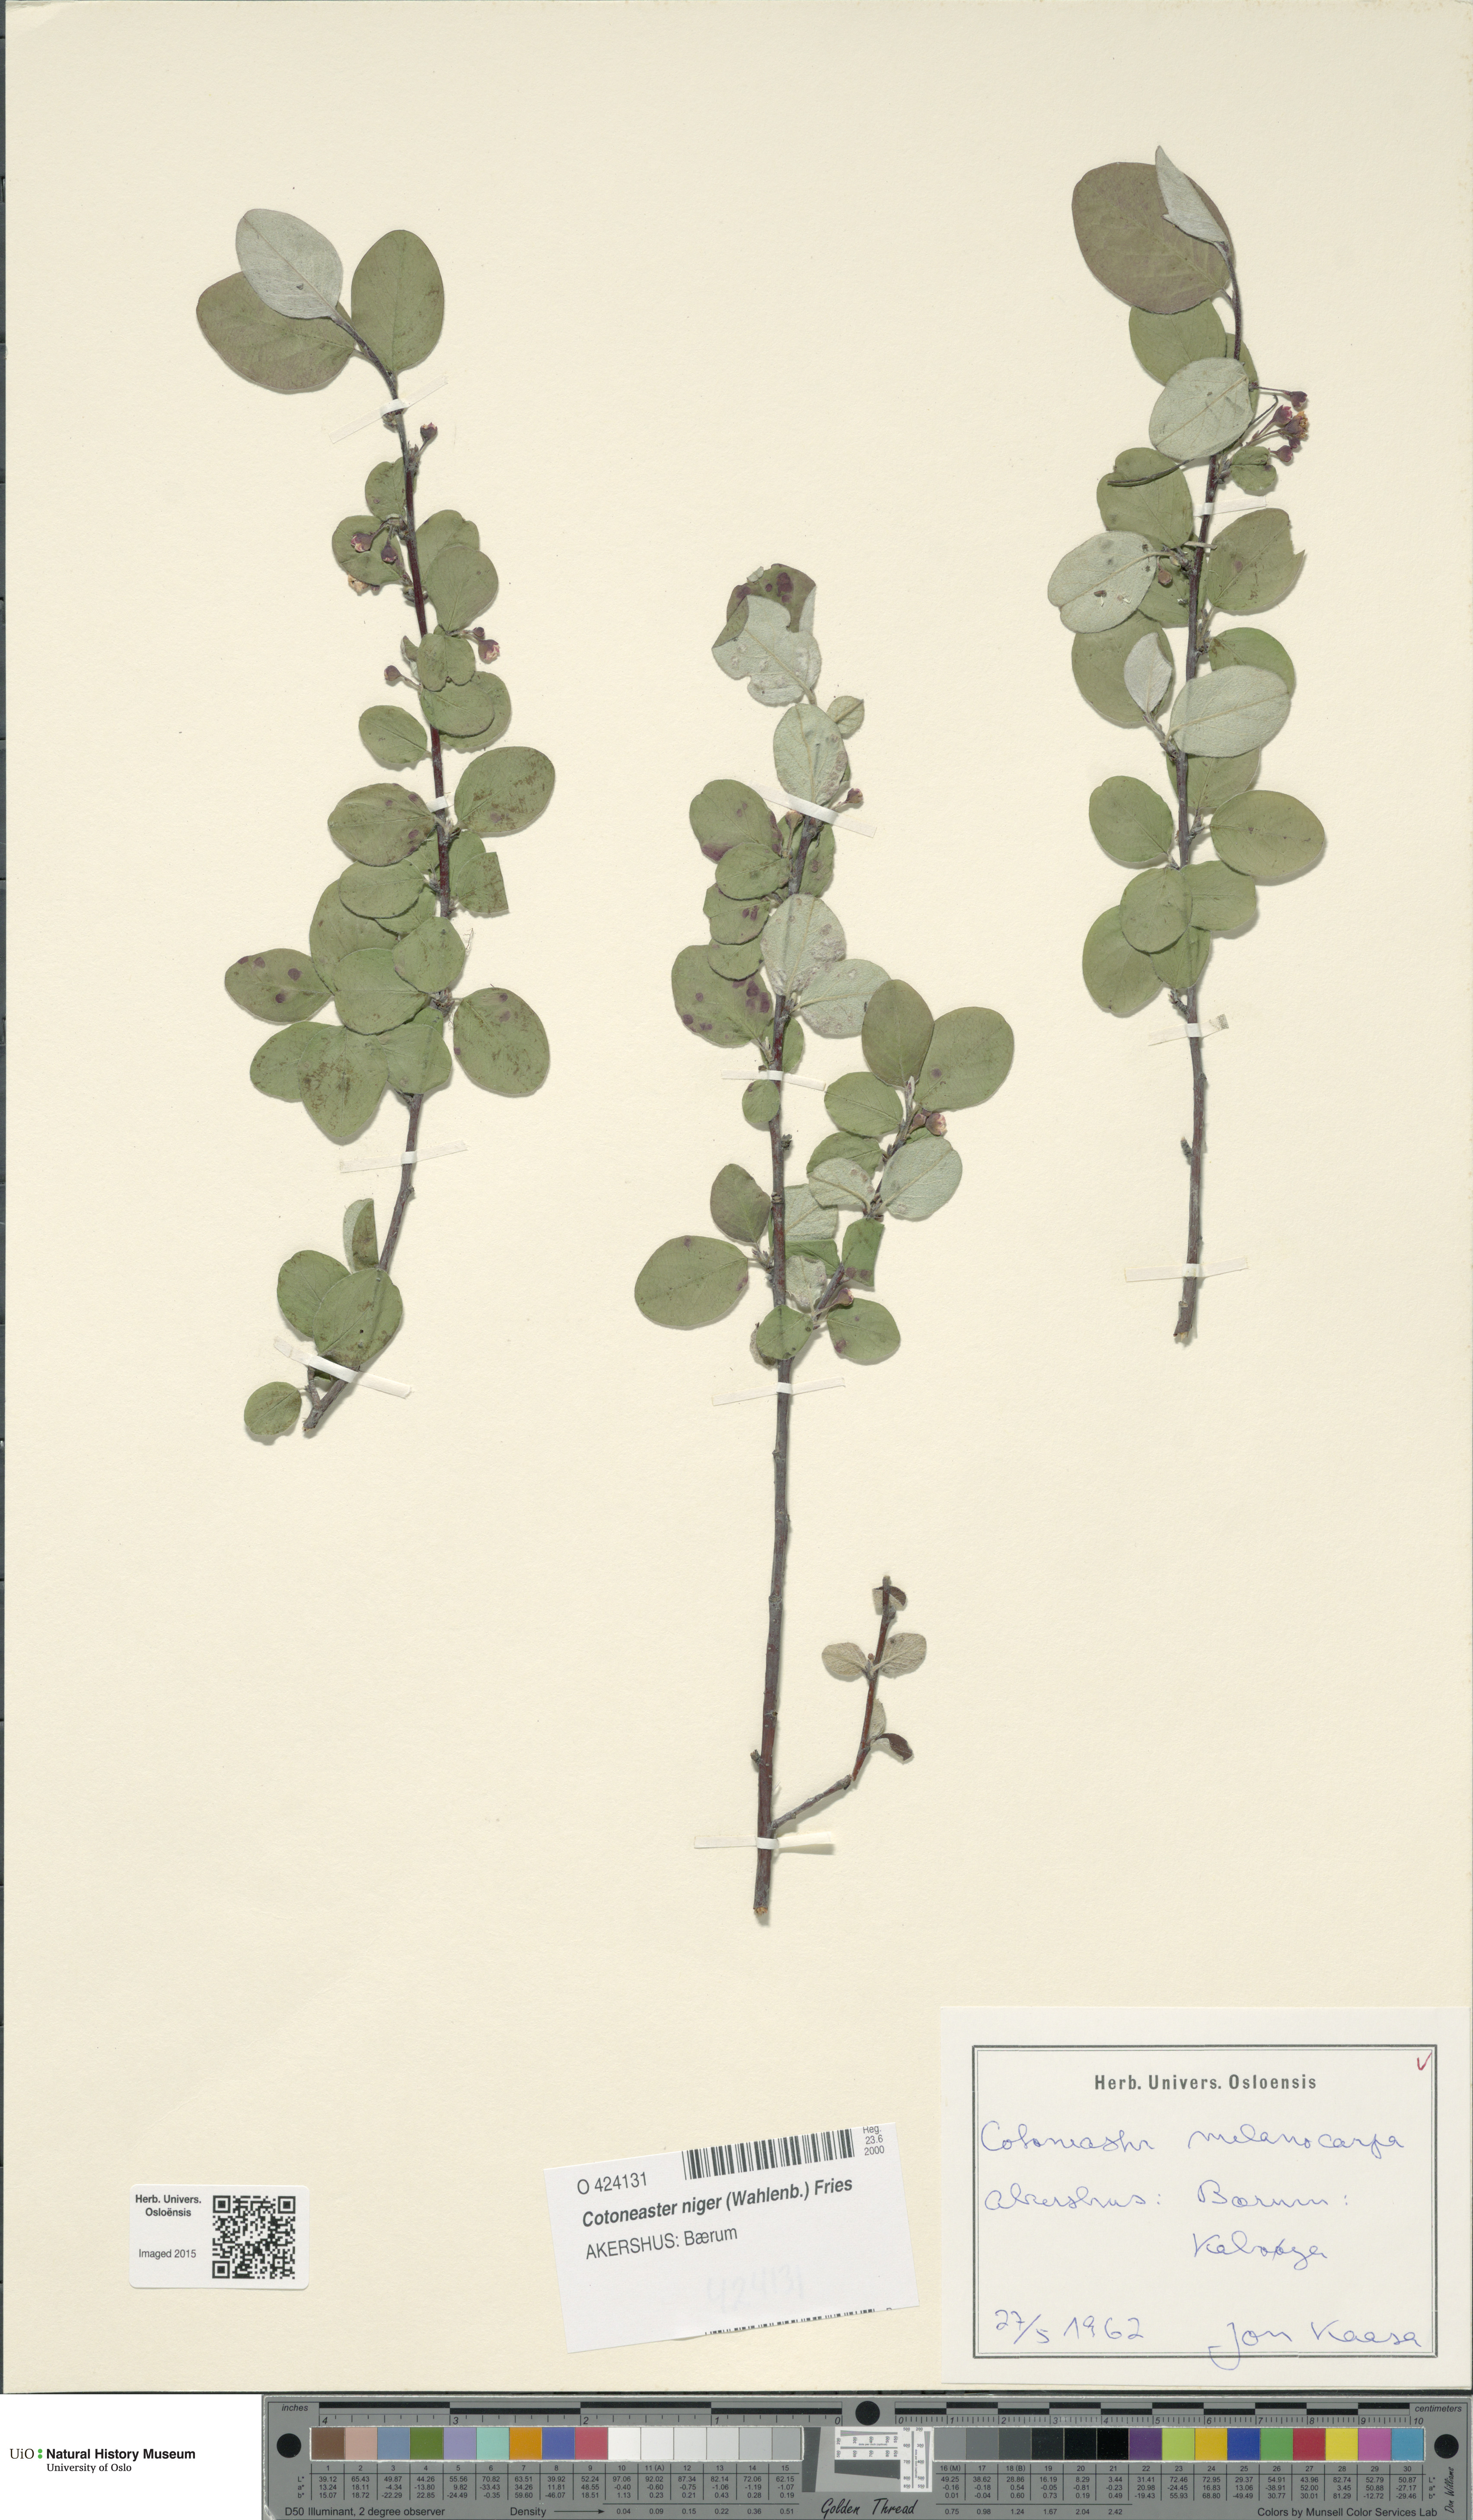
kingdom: Plantae
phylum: Tracheophyta
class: Magnoliopsida
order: Rosales
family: Rosaceae
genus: Cotoneaster
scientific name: Cotoneaster niger
